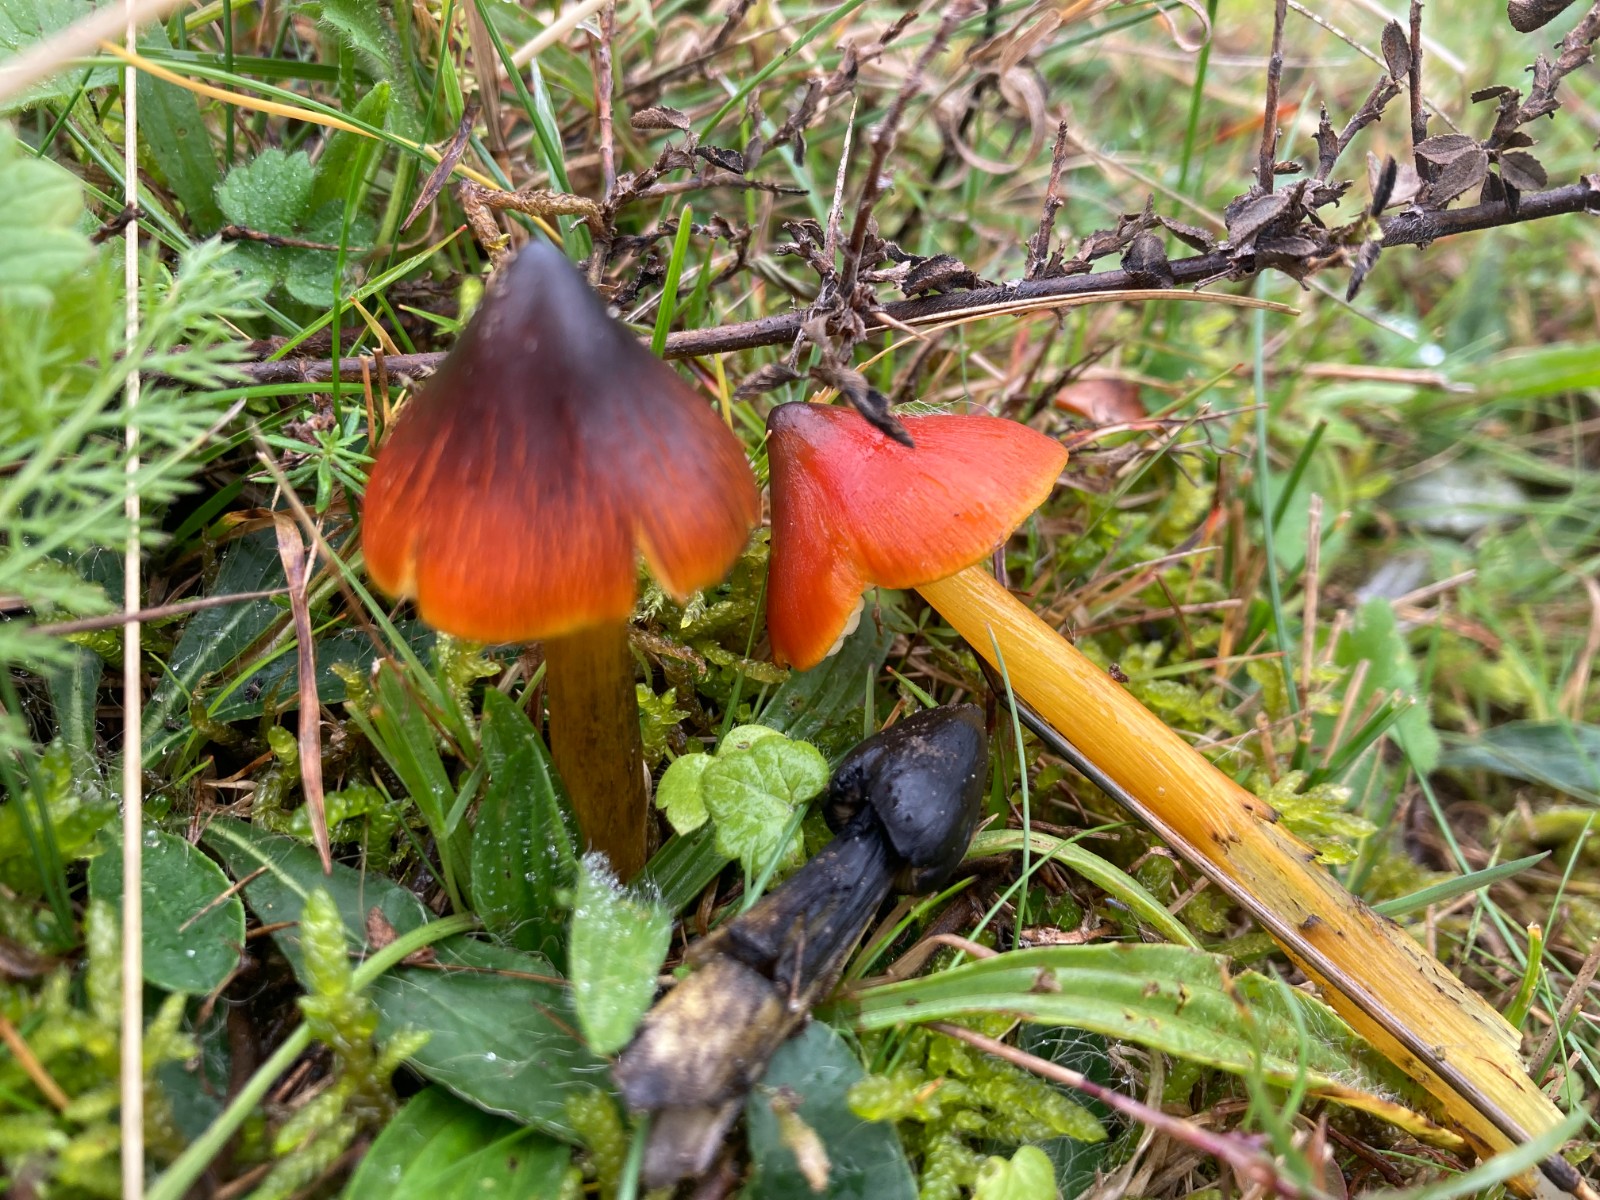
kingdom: Fungi
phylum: Basidiomycota
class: Agaricomycetes
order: Agaricales
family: Hygrophoraceae
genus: Hygrocybe
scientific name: Hygrocybe conica
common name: kegle-vokshat
